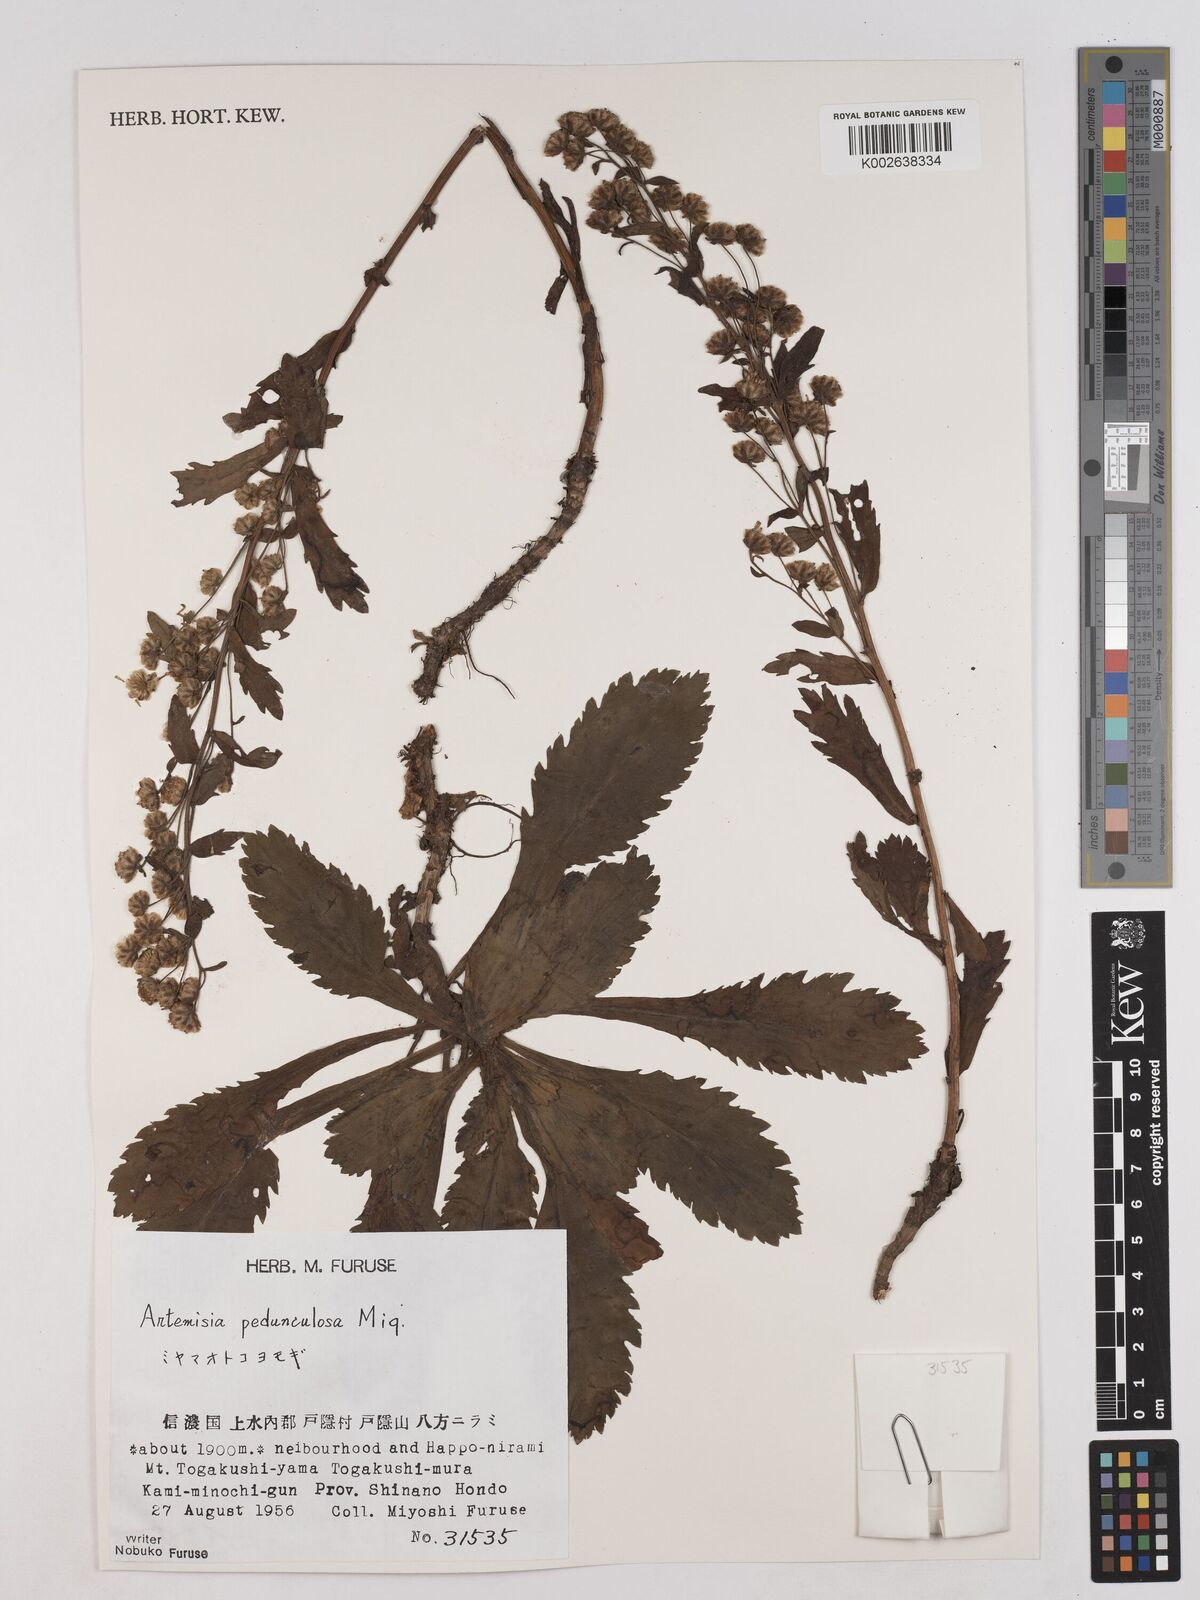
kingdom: Plantae
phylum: Tracheophyta
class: Magnoliopsida
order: Asterales
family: Asteraceae
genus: Artemisia
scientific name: Artemisia pedunculosa
